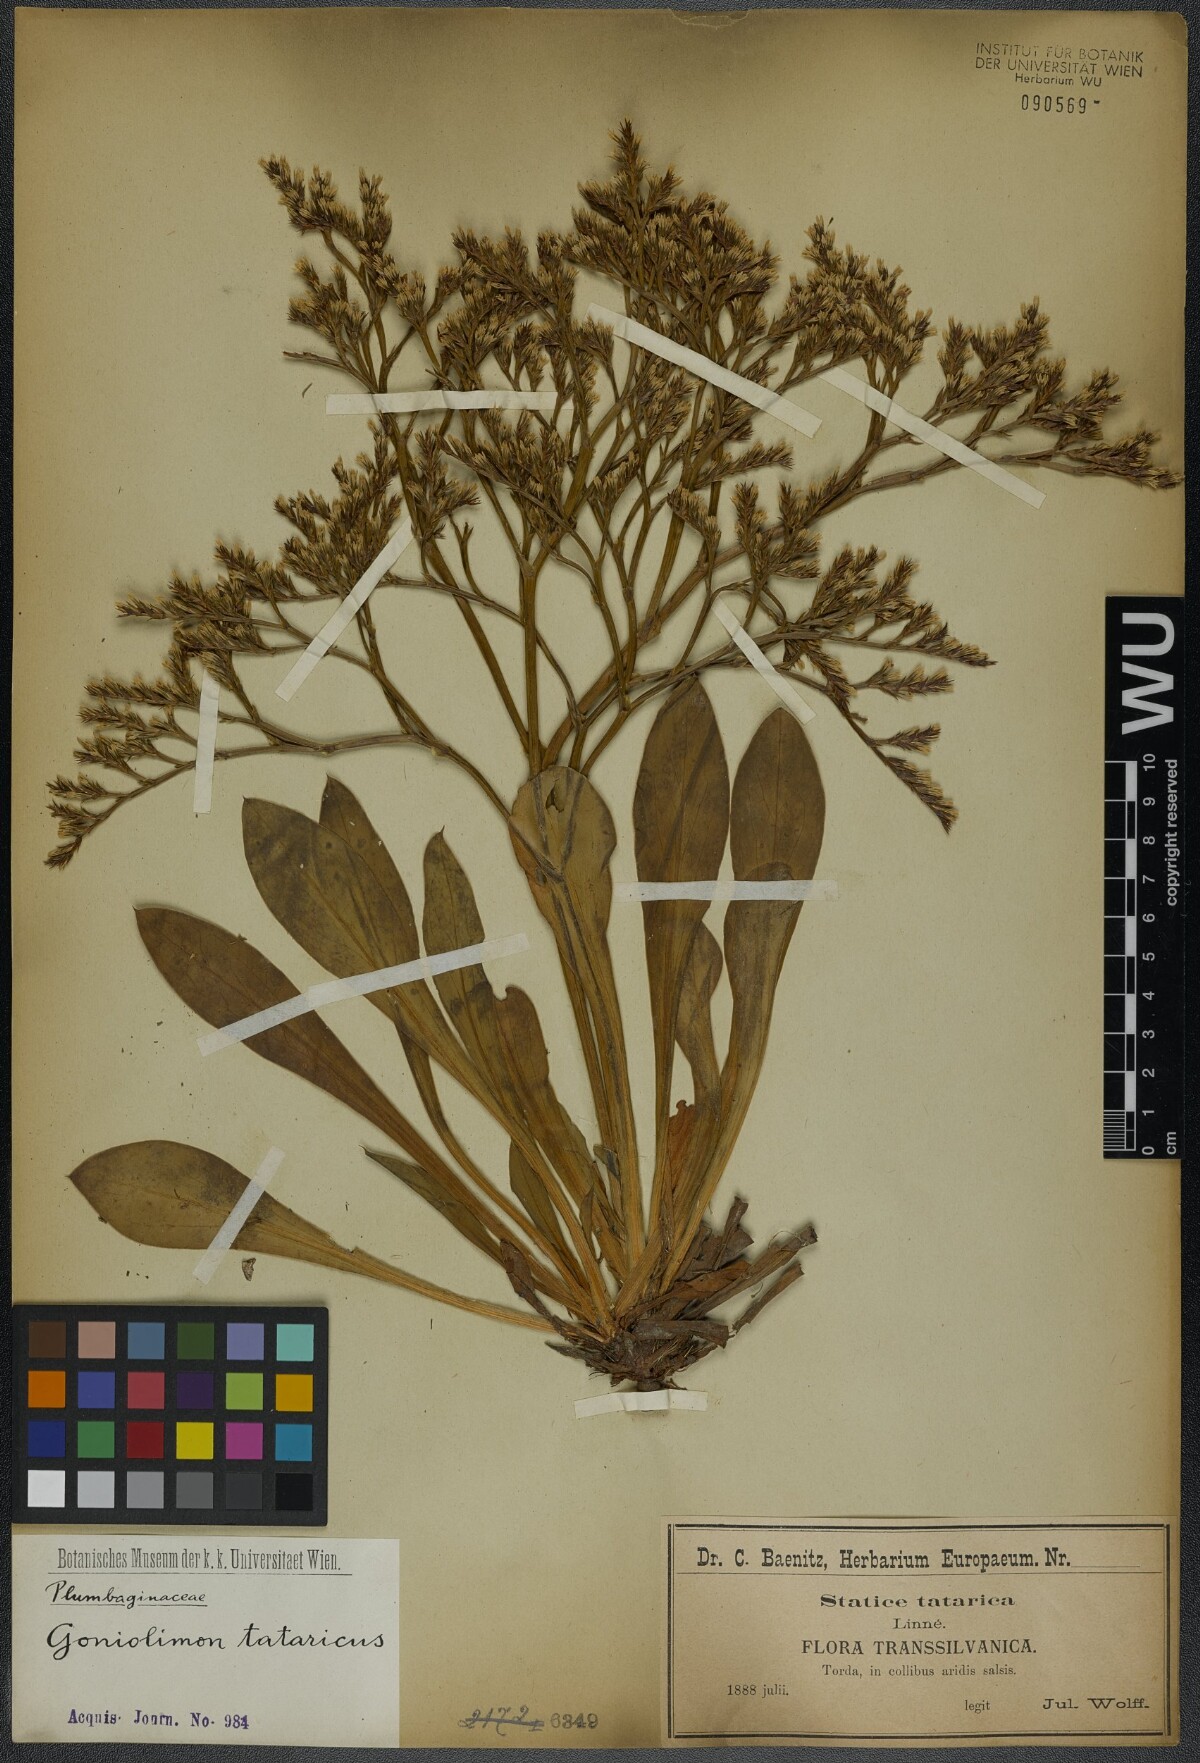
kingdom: Plantae
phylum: Tracheophyta
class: Magnoliopsida
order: Caryophyllales
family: Plumbaginaceae
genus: Goniolimon
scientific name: Goniolimon tataricum
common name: Statice
